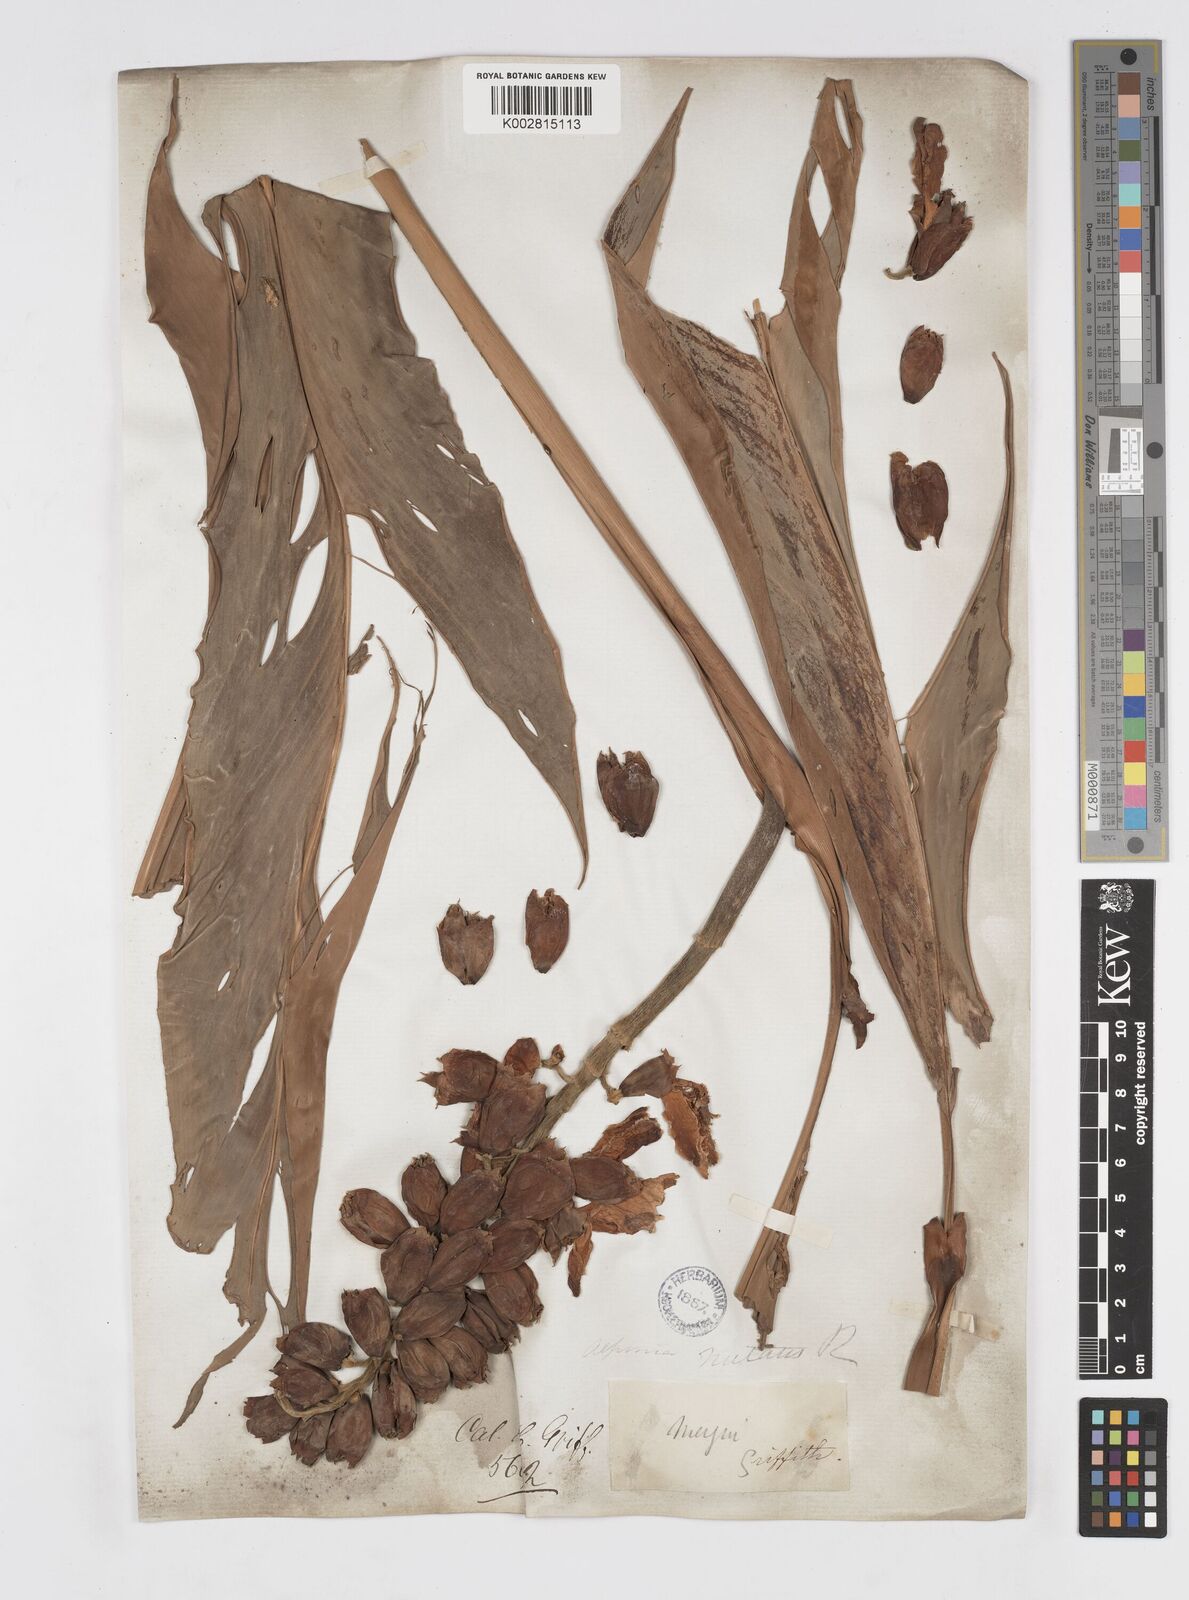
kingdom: Plantae
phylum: Tracheophyta
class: Liliopsida
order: Zingiberales
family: Zingiberaceae
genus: Alpinia
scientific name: Alpinia zerumbet
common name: Shellplant
